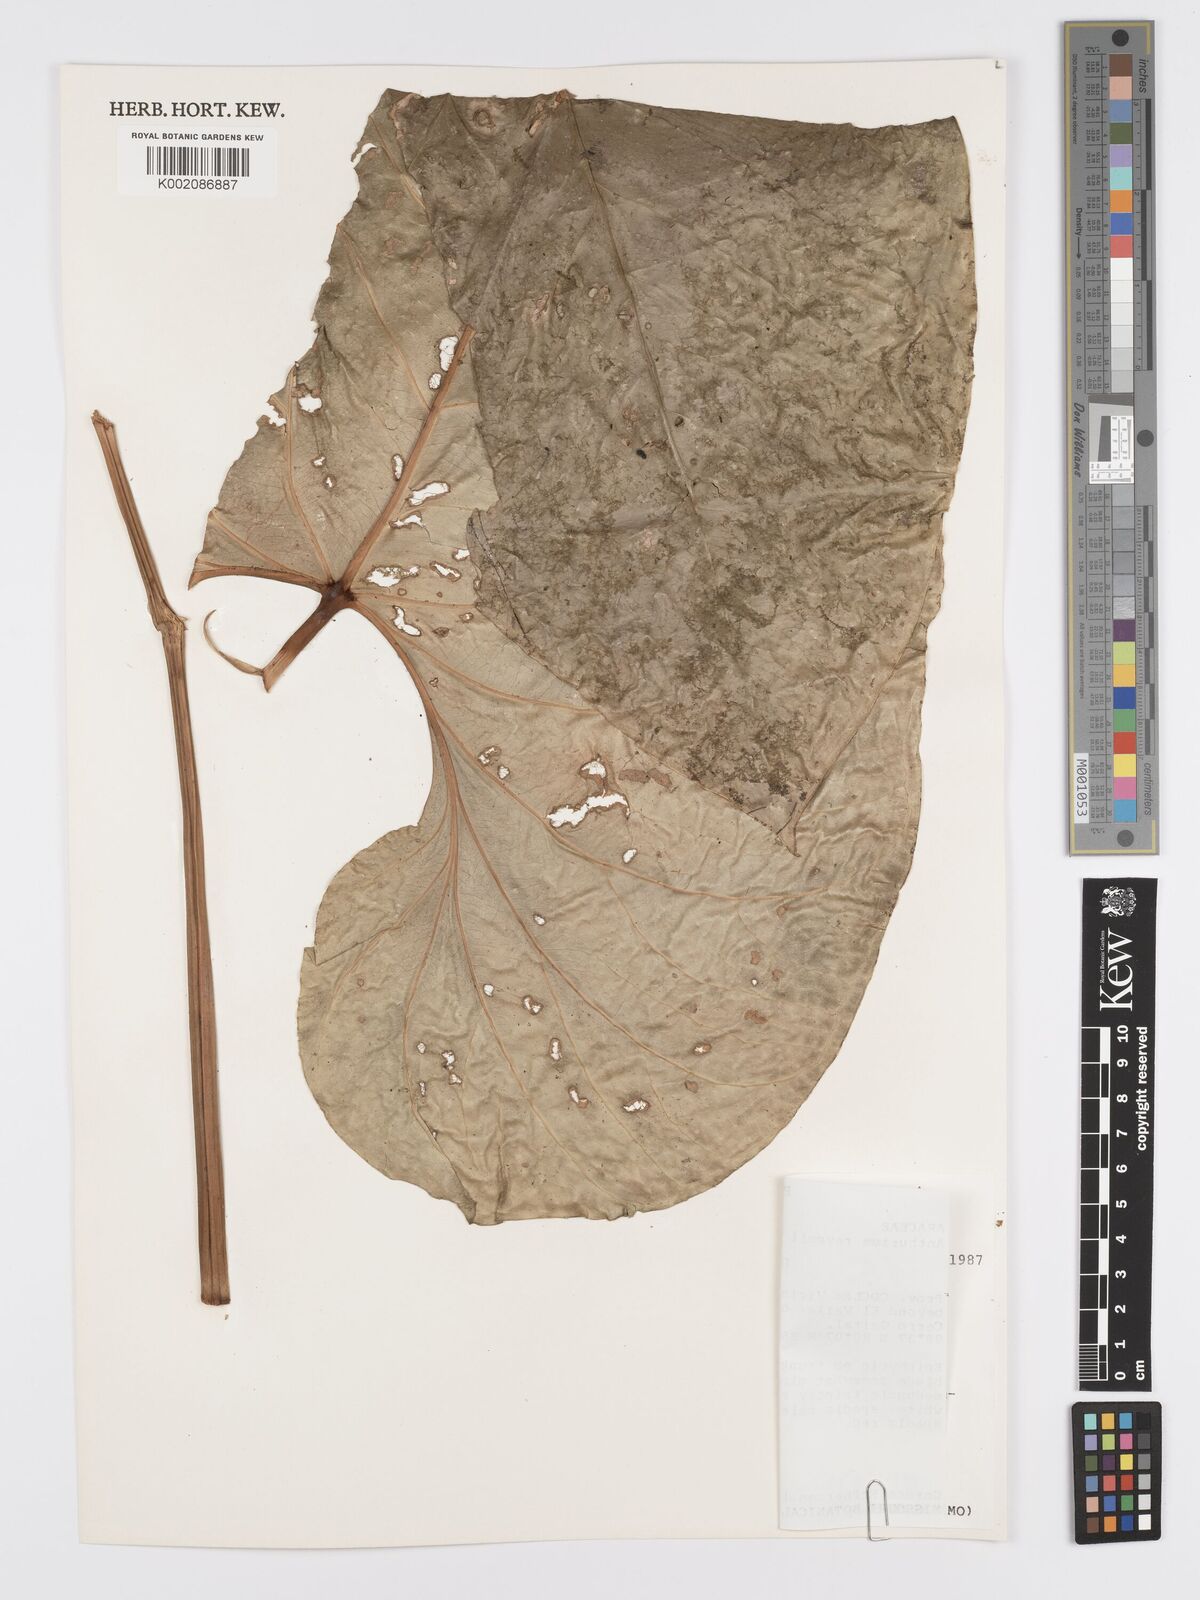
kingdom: Plantae
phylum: Tracheophyta
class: Liliopsida
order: Alismatales
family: Araceae
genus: Anthurium
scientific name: Anthurium ravenii
